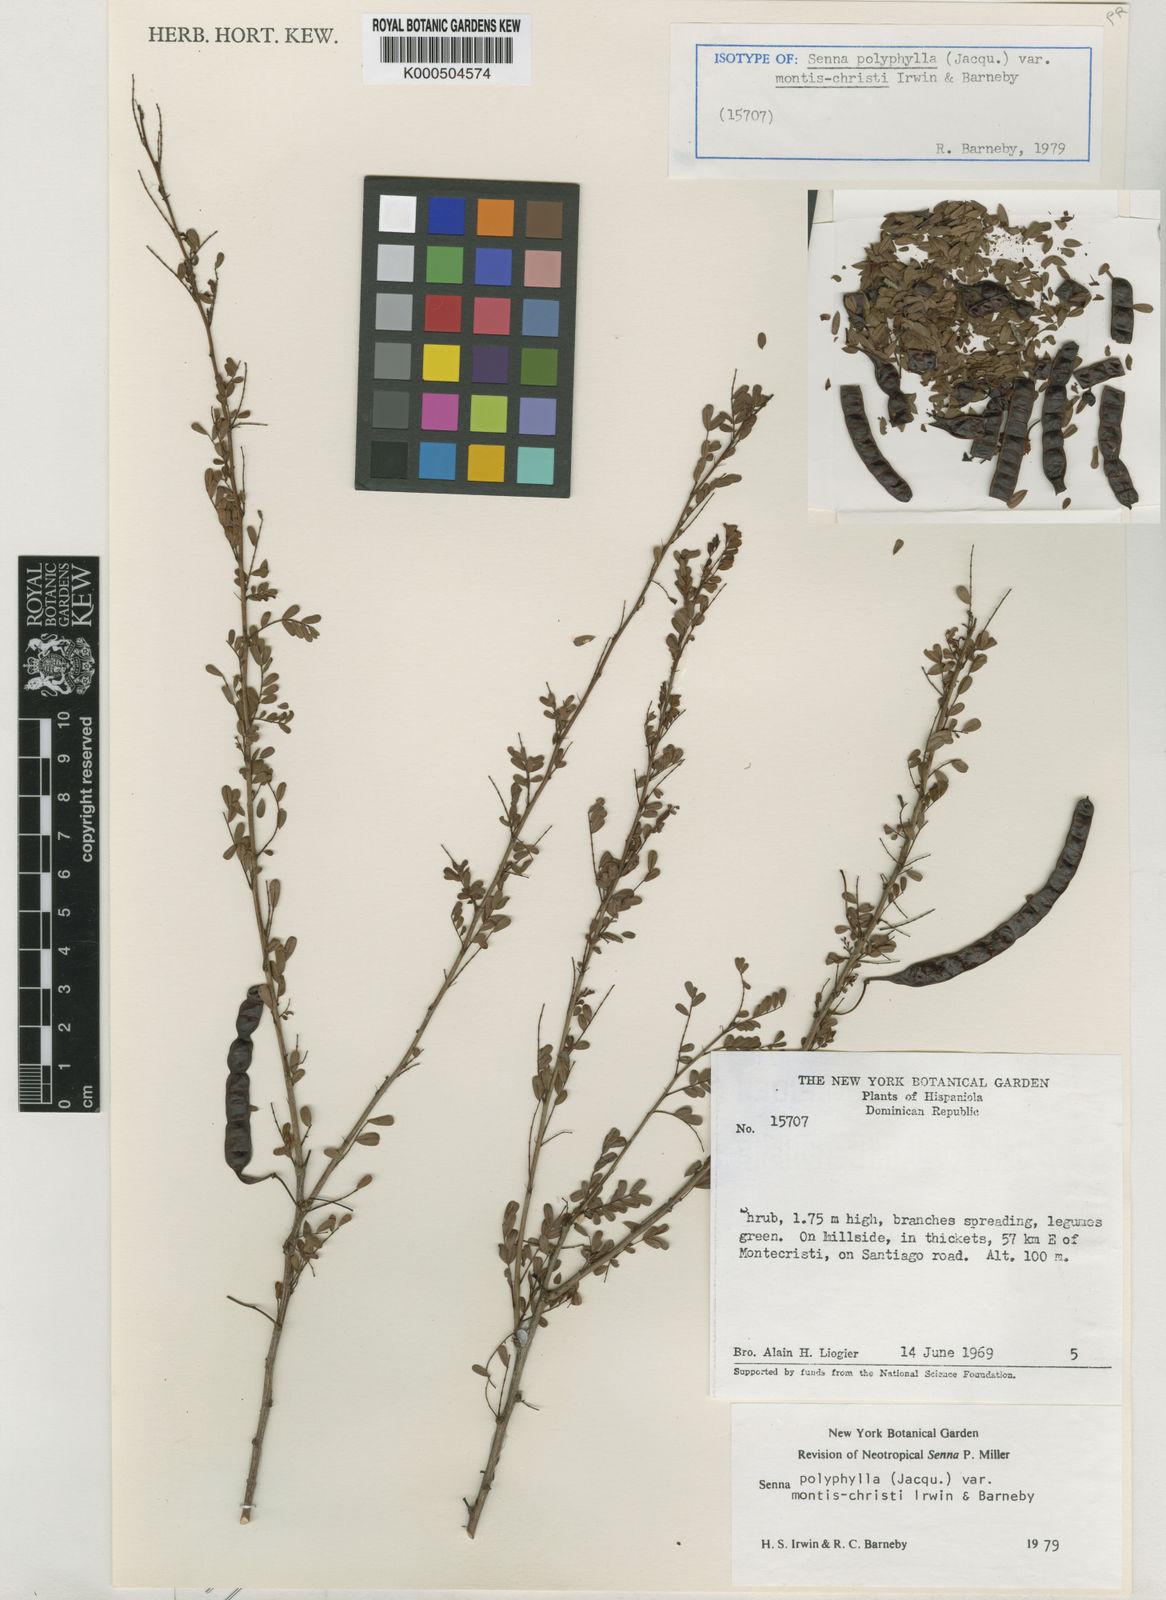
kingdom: Plantae
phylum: Tracheophyta
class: Magnoliopsida
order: Fabales
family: Fabaceae
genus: Senna
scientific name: Senna polyphylla
